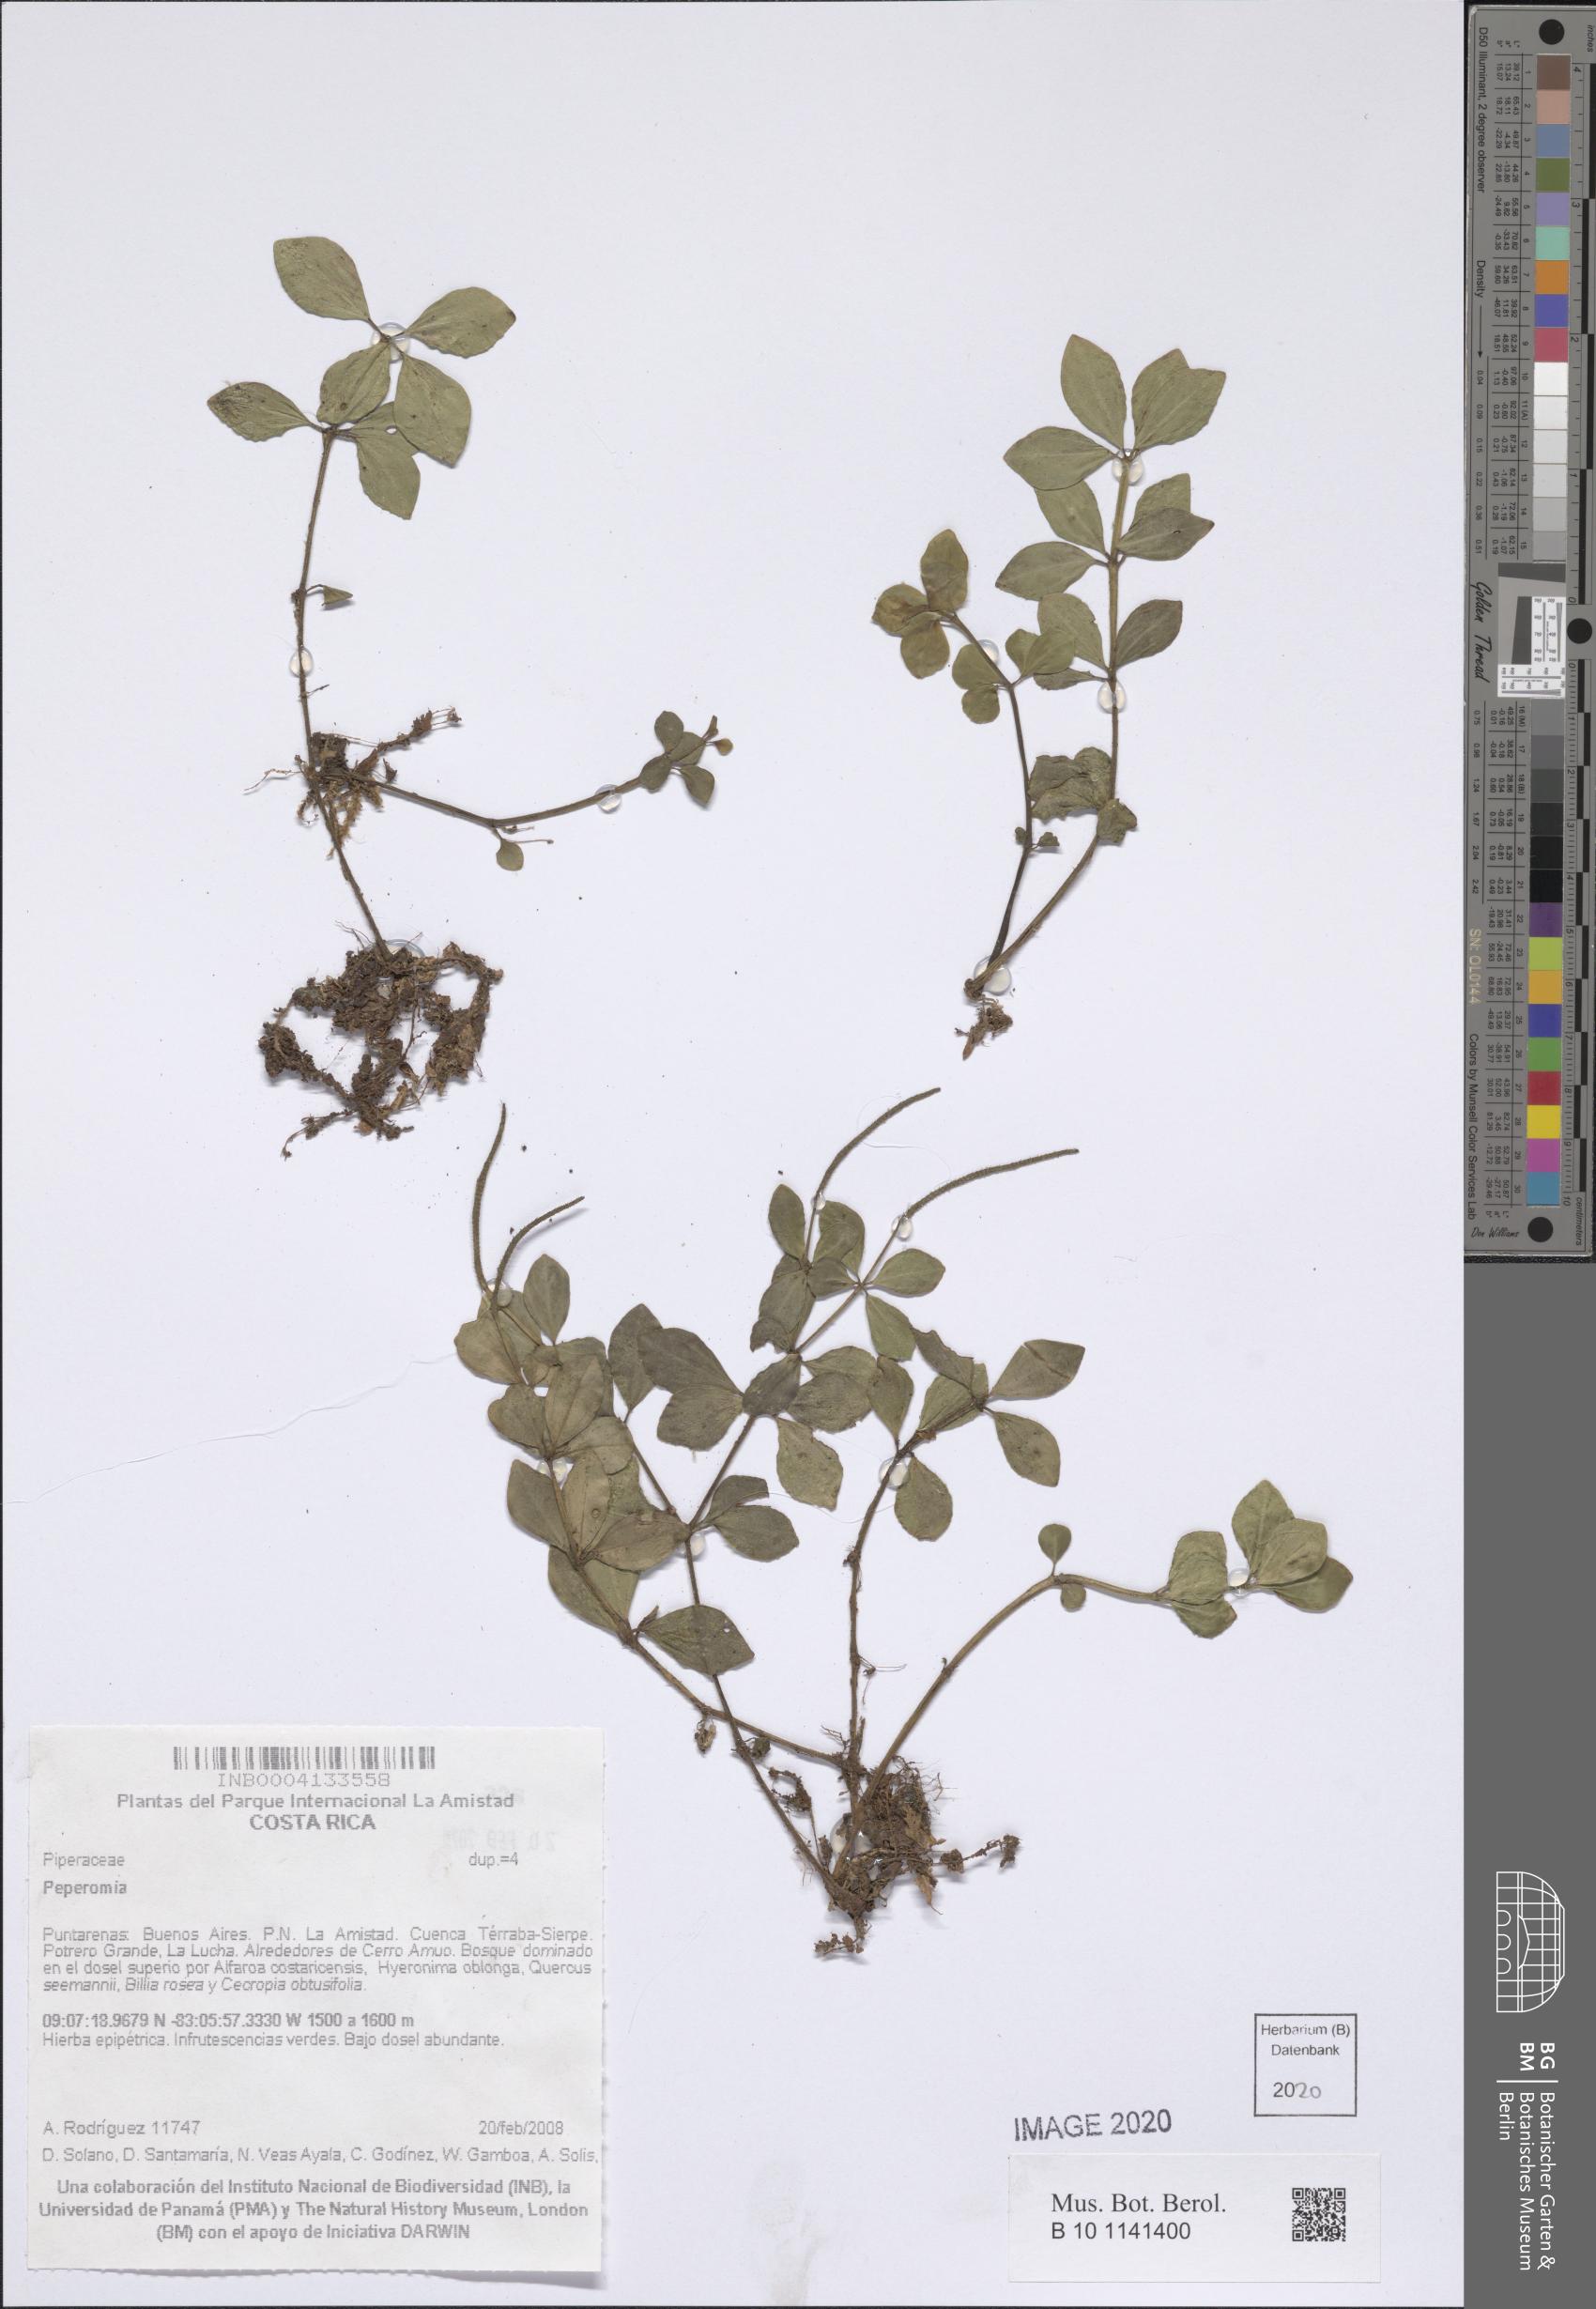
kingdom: Plantae
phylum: Tracheophyta
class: Magnoliopsida
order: Piperales
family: Piperaceae
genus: Peperomia
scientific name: Peperomia
